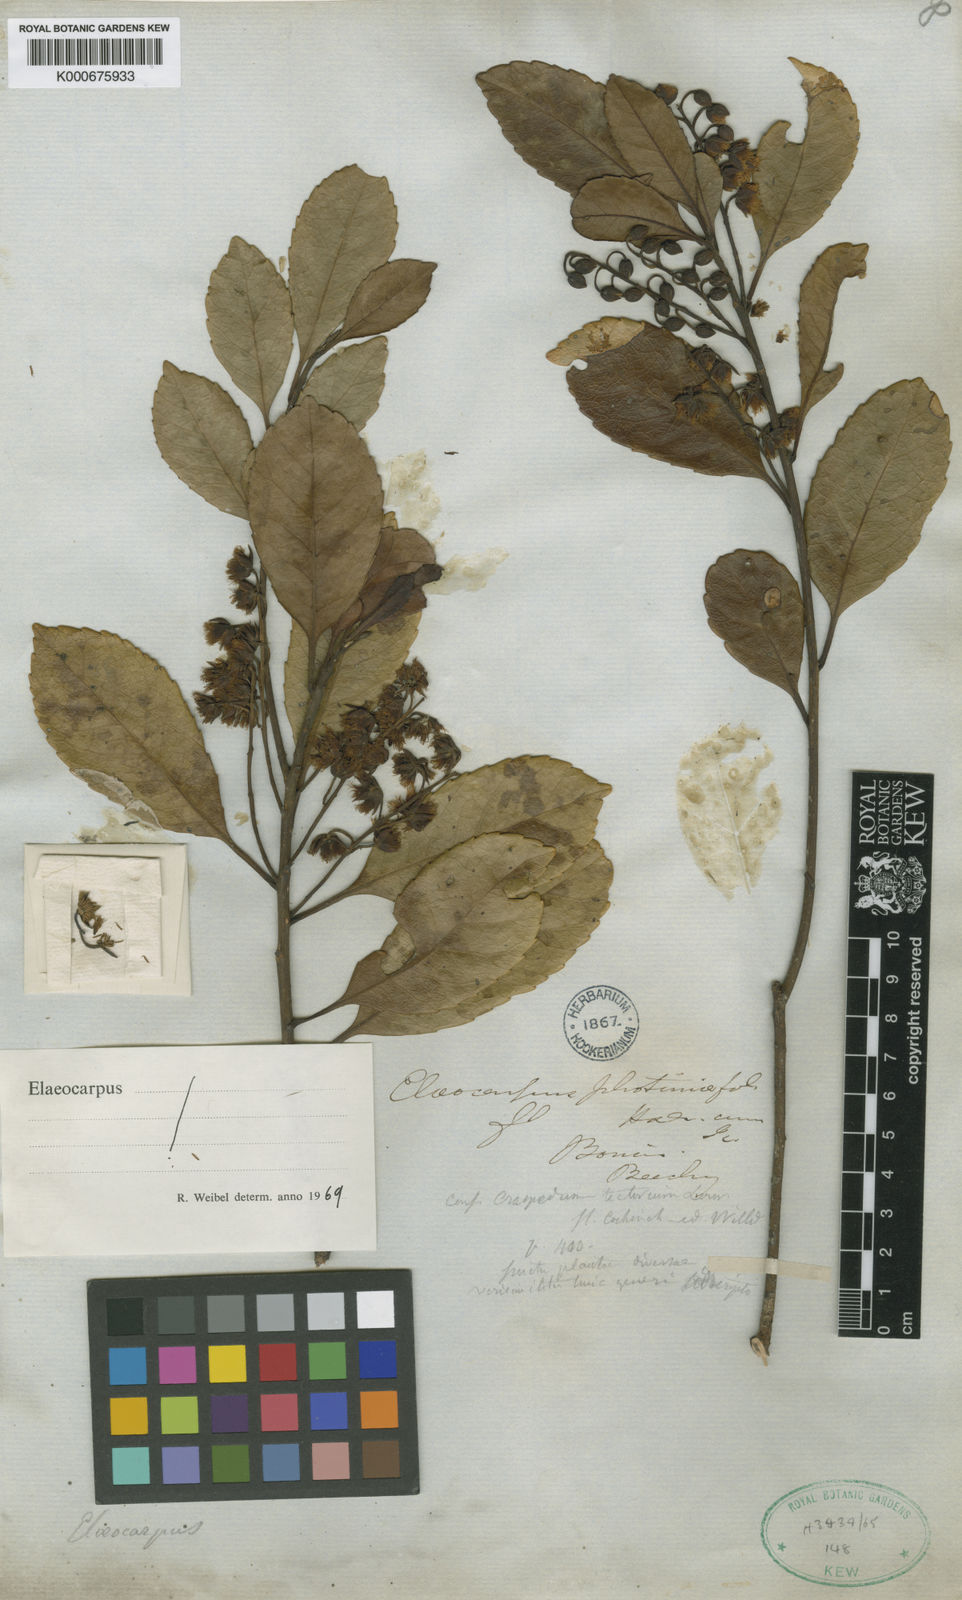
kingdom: Plantae
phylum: Tracheophyta
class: Magnoliopsida
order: Oxalidales
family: Elaeocarpaceae
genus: Elaeocarpus
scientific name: Elaeocarpus sylvestris
